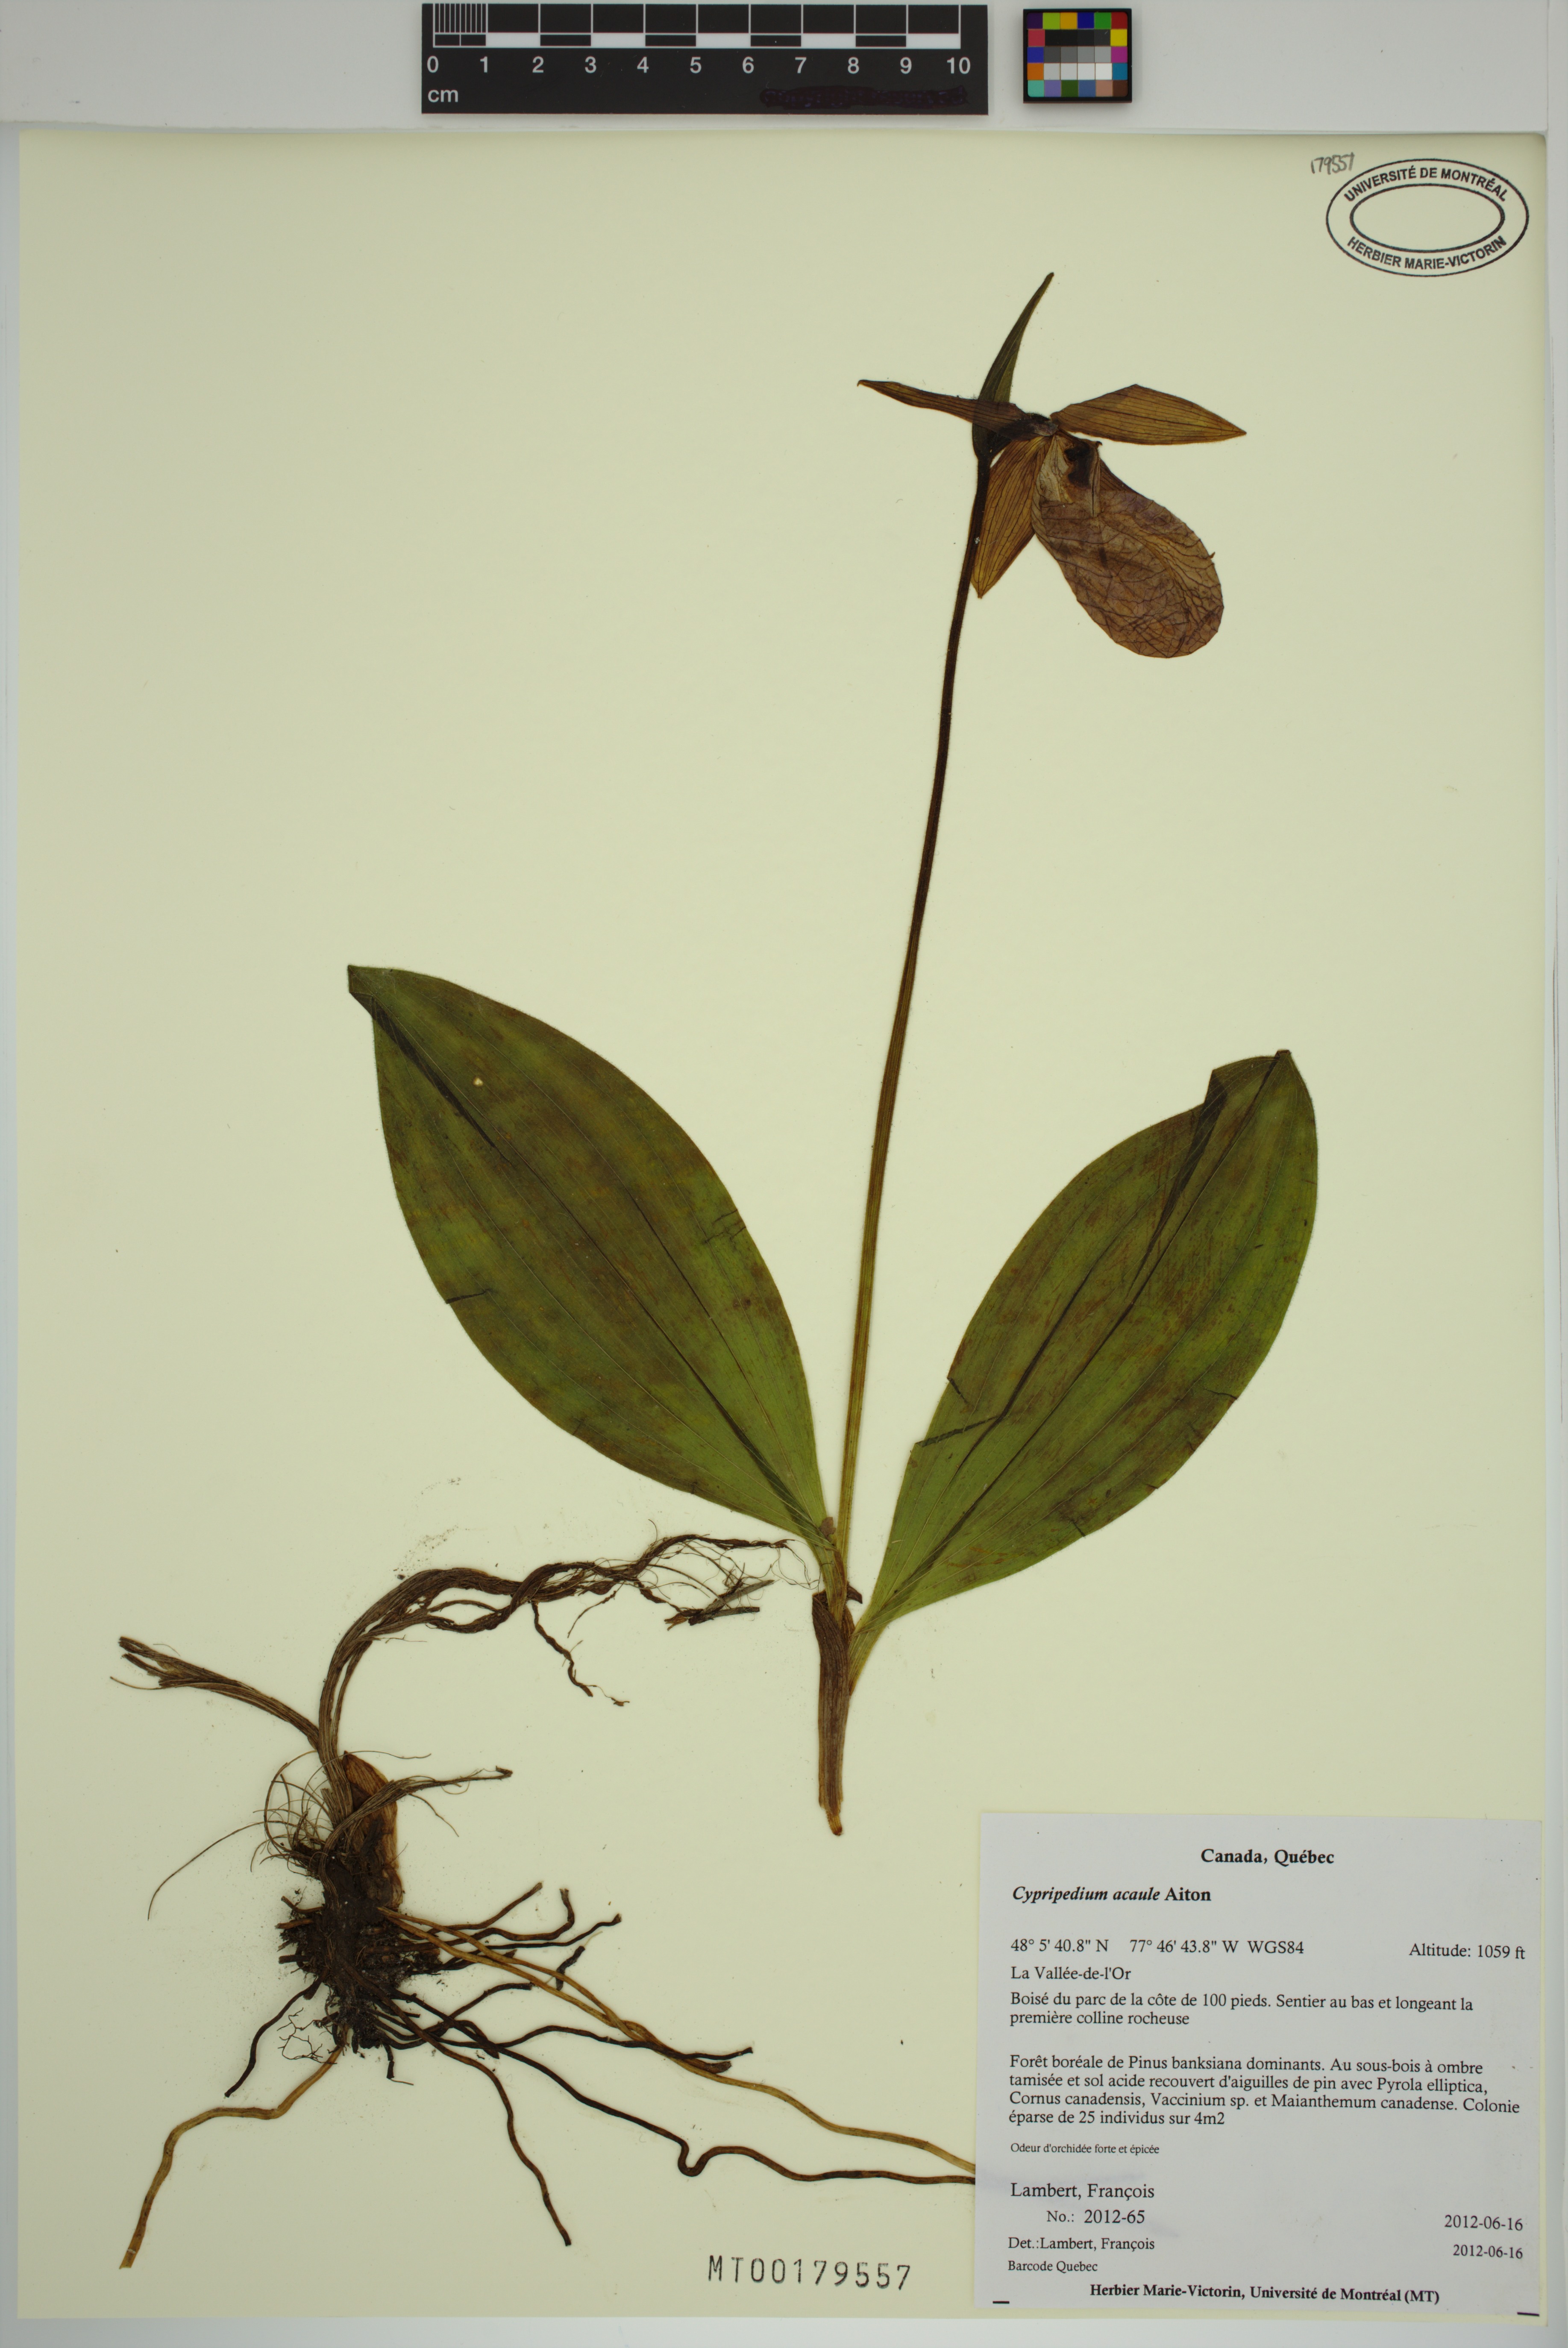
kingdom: Plantae
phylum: Tracheophyta
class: Liliopsida
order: Asparagales
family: Orchidaceae
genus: Cypripedium
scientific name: Cypripedium acaule
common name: Pink lady's-slipper
